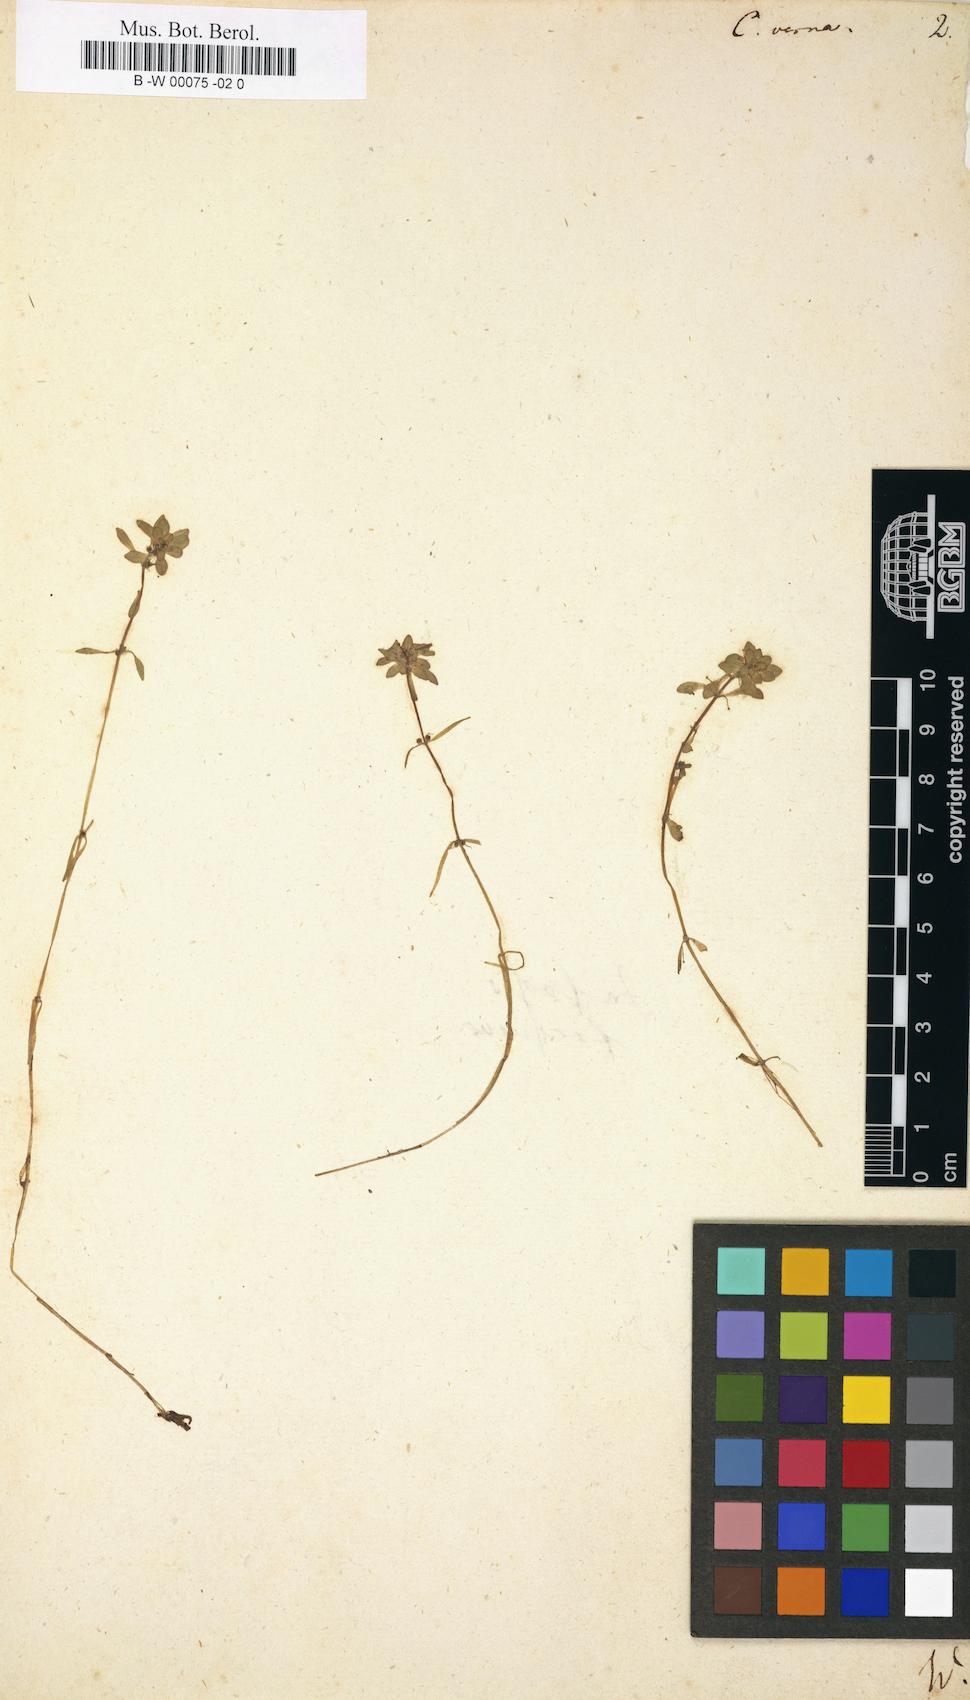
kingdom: Plantae
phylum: Tracheophyta
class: Magnoliopsida
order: Lamiales
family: Plantaginaceae
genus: Callitriche
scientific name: Callitriche palustris
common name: Spring water-starwort
